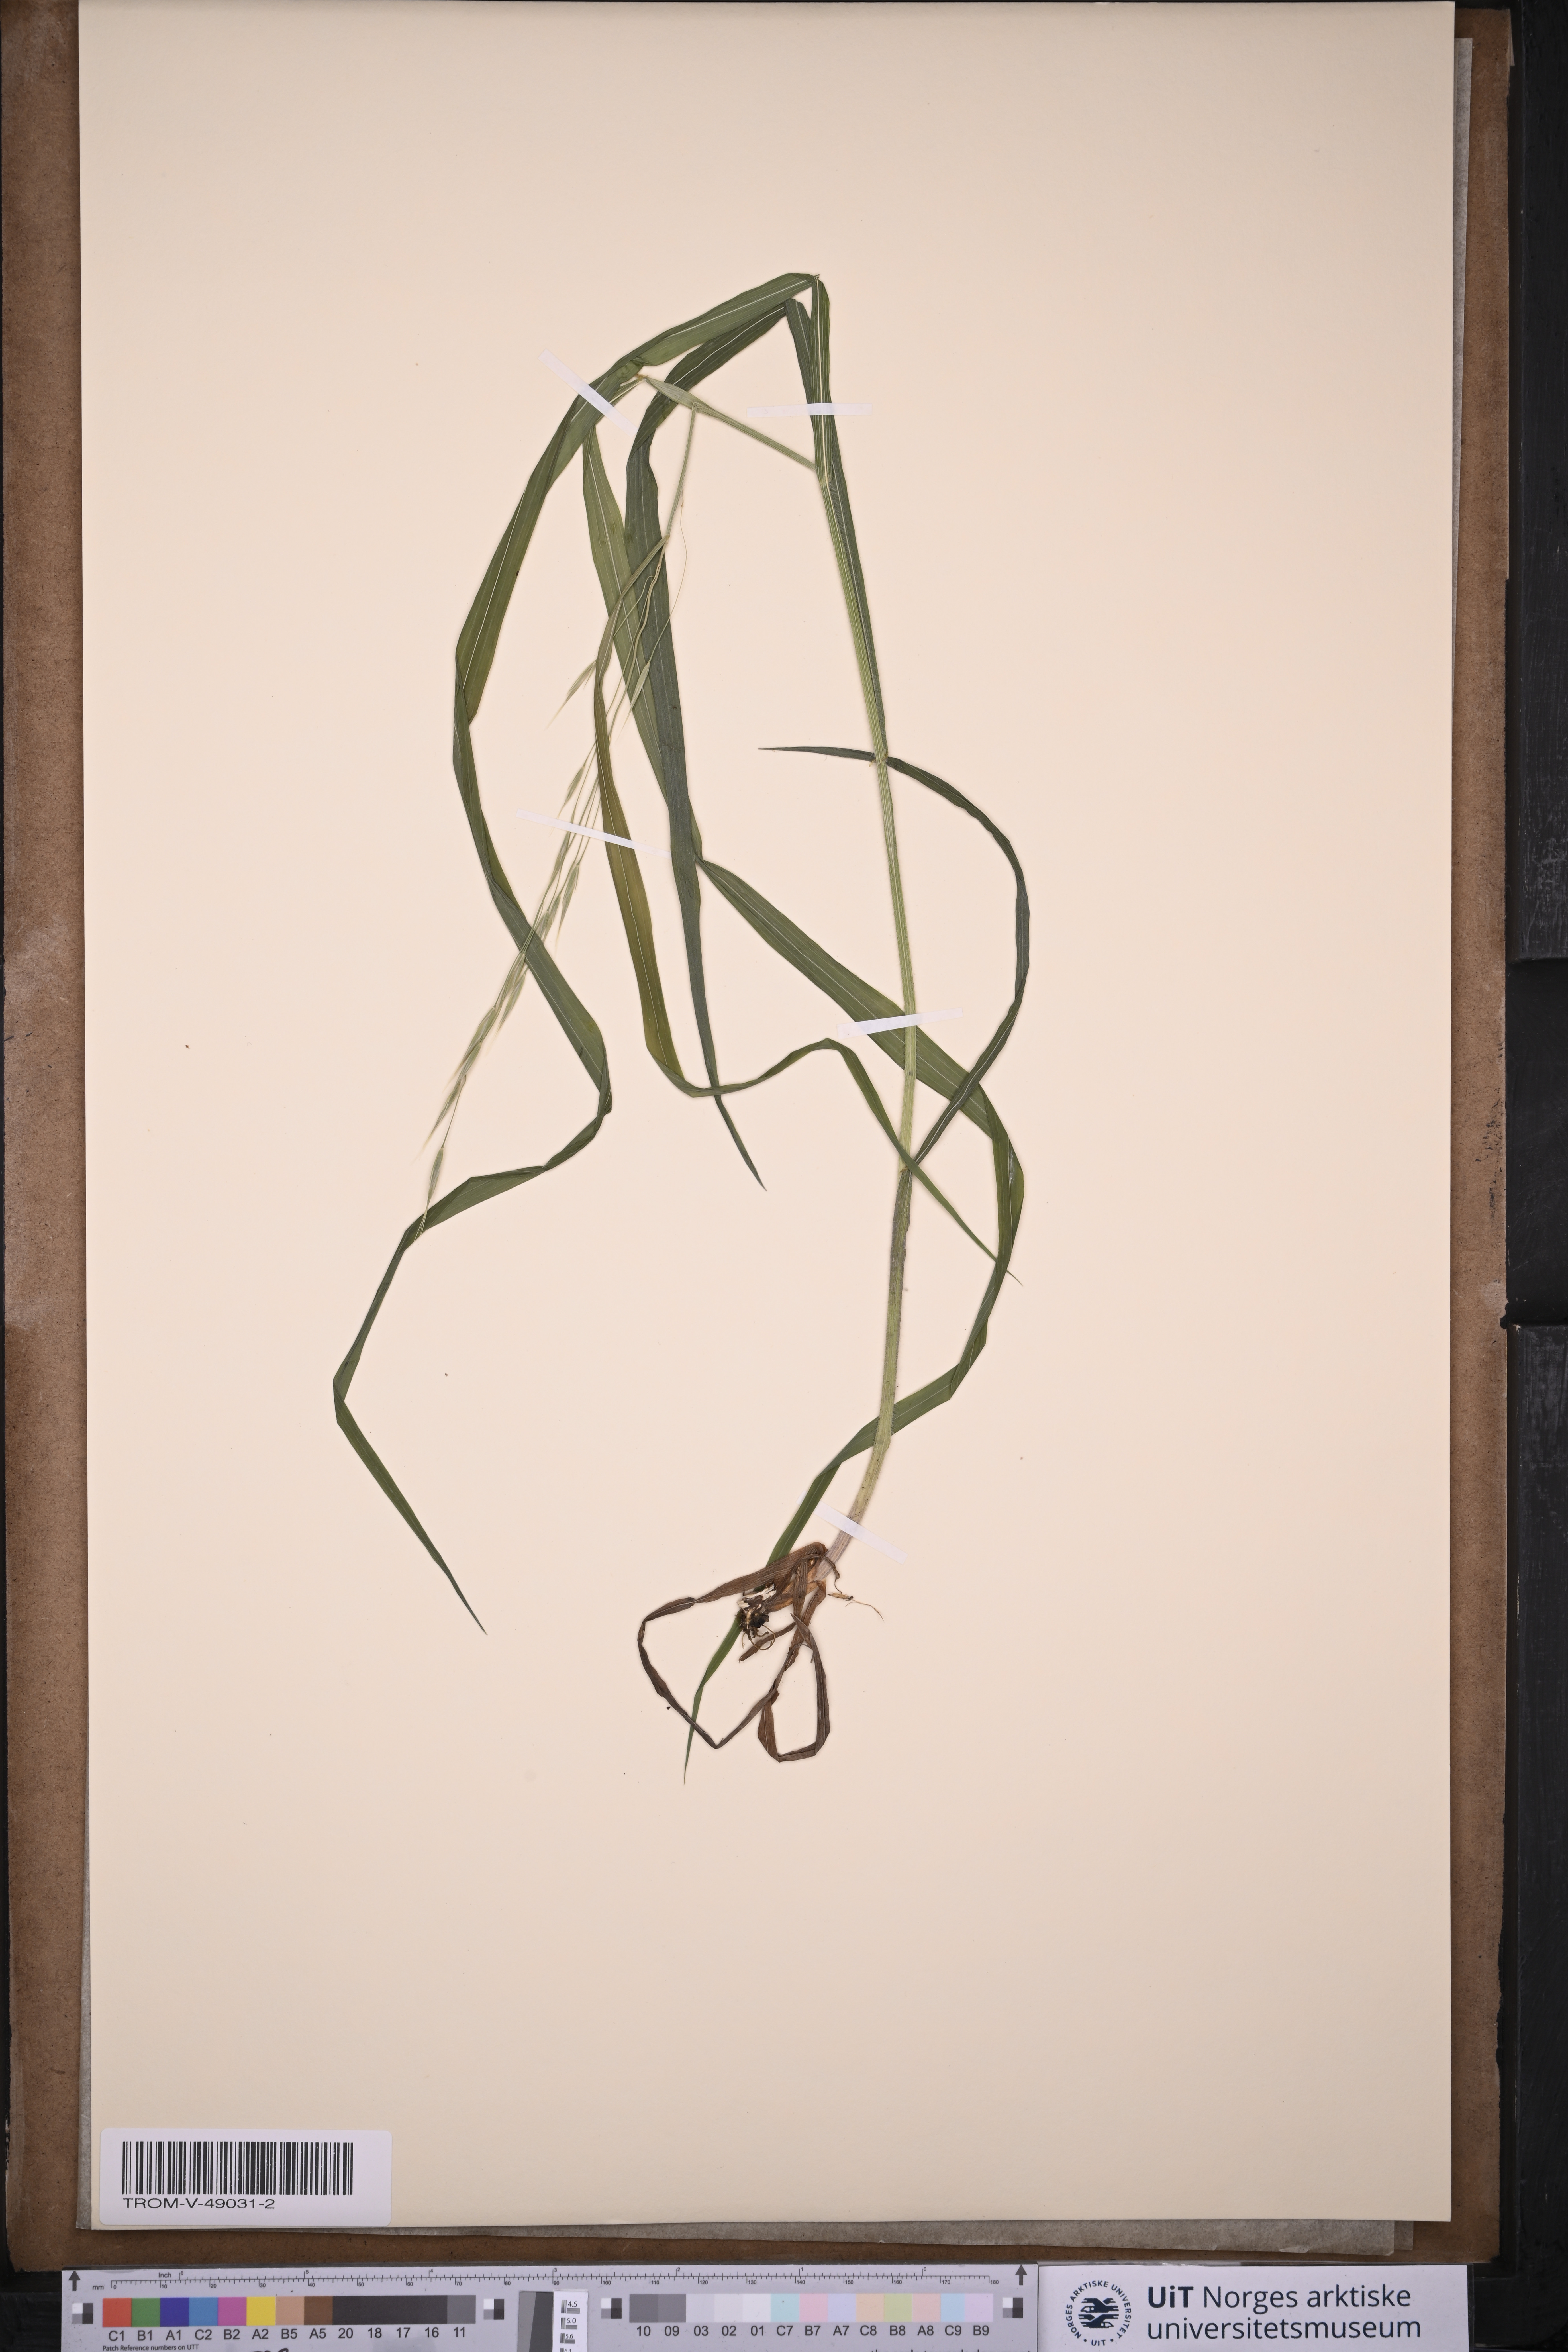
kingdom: Plantae
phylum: Tracheophyta
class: Liliopsida
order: Poales
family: Poaceae
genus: Bromus
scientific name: Bromus ramosus
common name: Hairy brome
